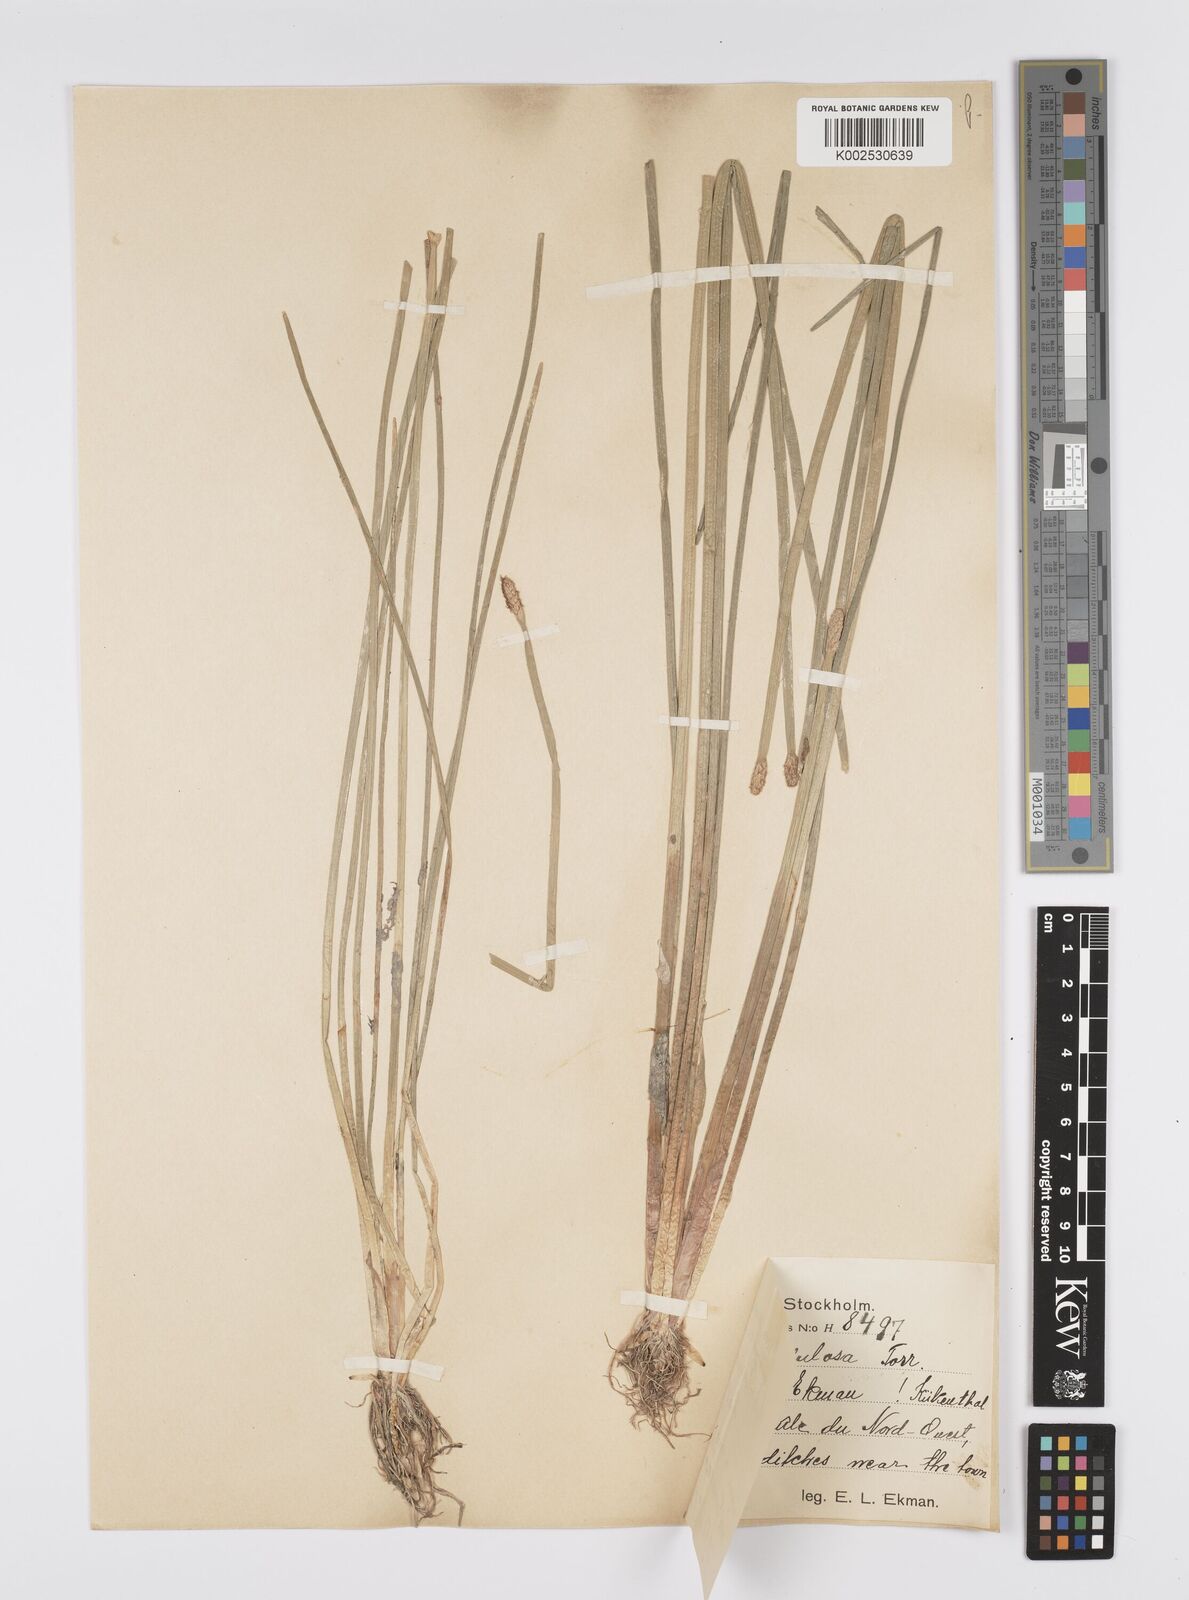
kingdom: Plantae
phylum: Tracheophyta
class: Liliopsida
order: Poales
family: Cyperaceae
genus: Eleocharis
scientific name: Eleocharis erhaiensis
